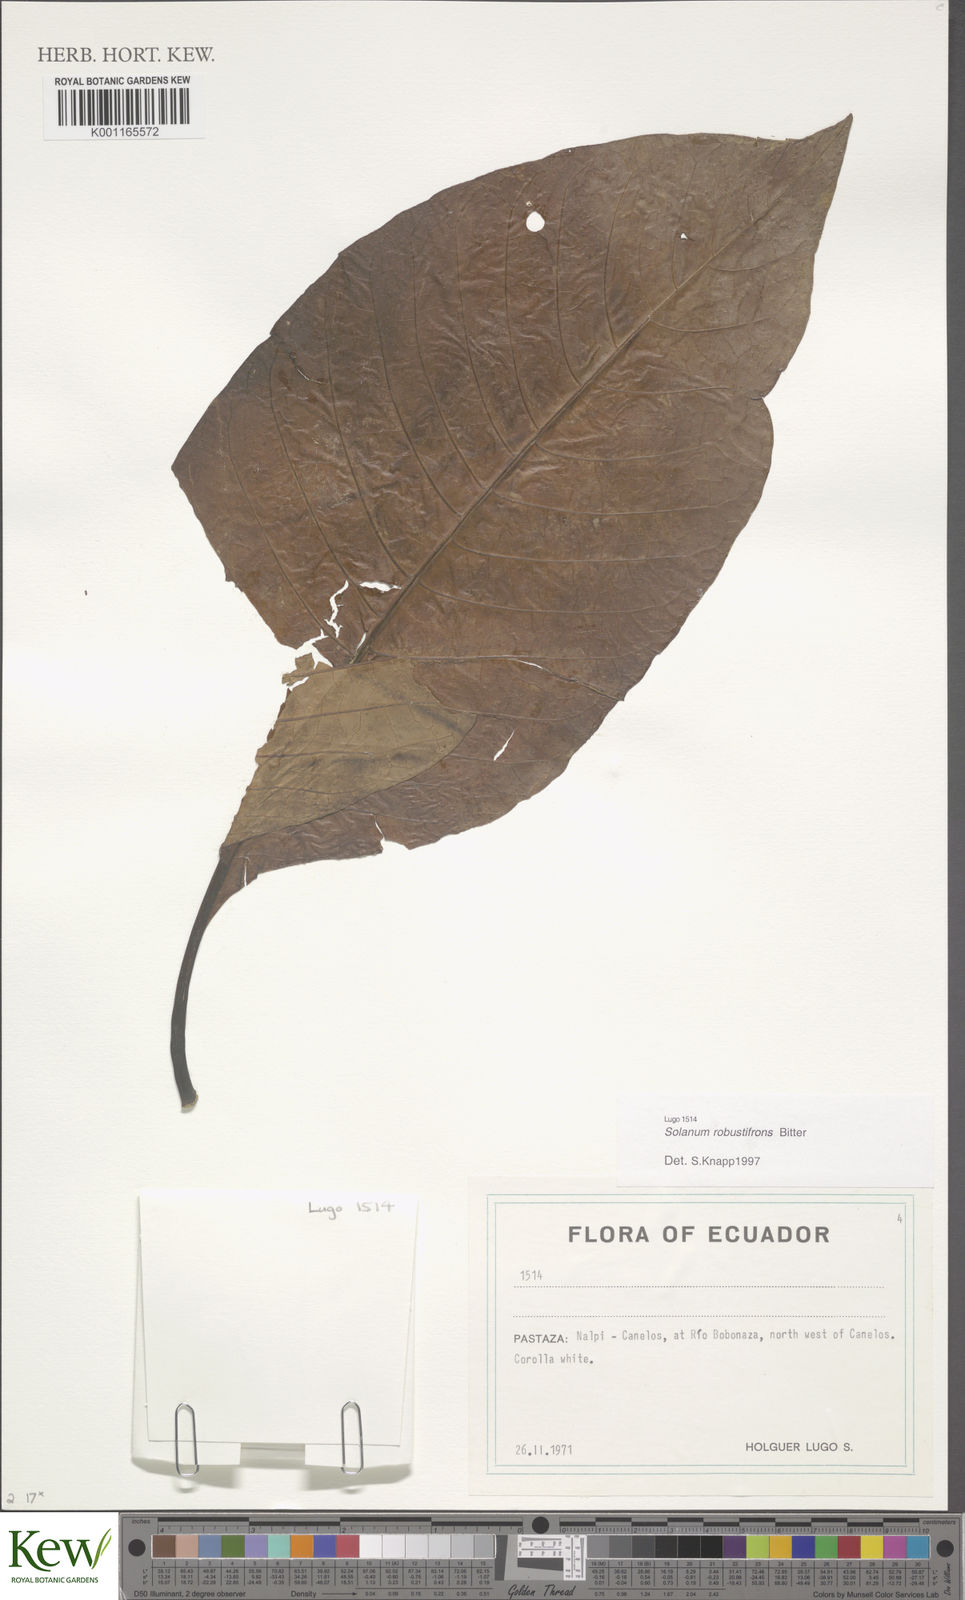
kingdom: Plantae
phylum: Tracheophyta
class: Magnoliopsida
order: Solanales
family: Solanaceae
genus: Solanum
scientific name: Solanum robustifrons
